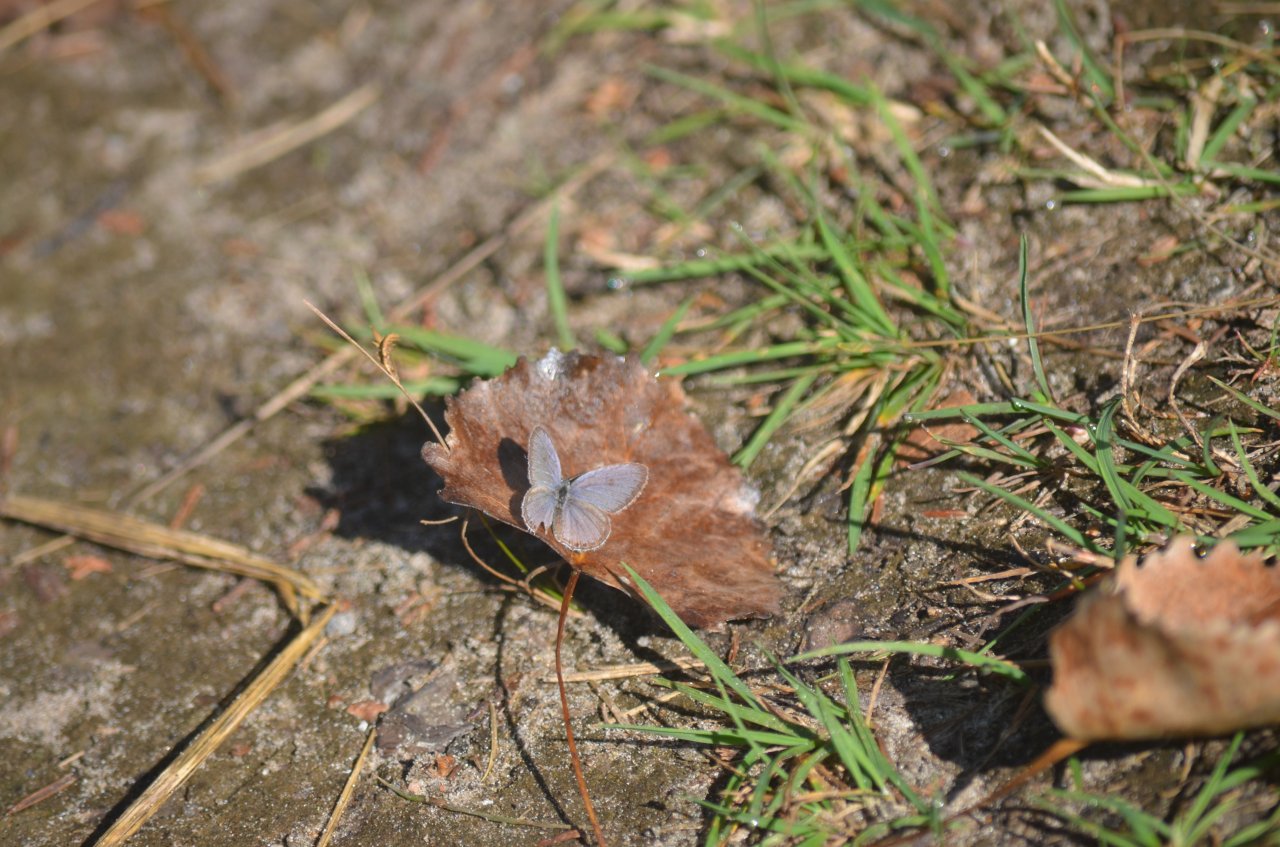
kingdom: Animalia
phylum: Arthropoda
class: Insecta
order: Lepidoptera
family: Lycaenidae
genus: Elkalyce
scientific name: Elkalyce comyntas
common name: Eastern Tailed-Blue
